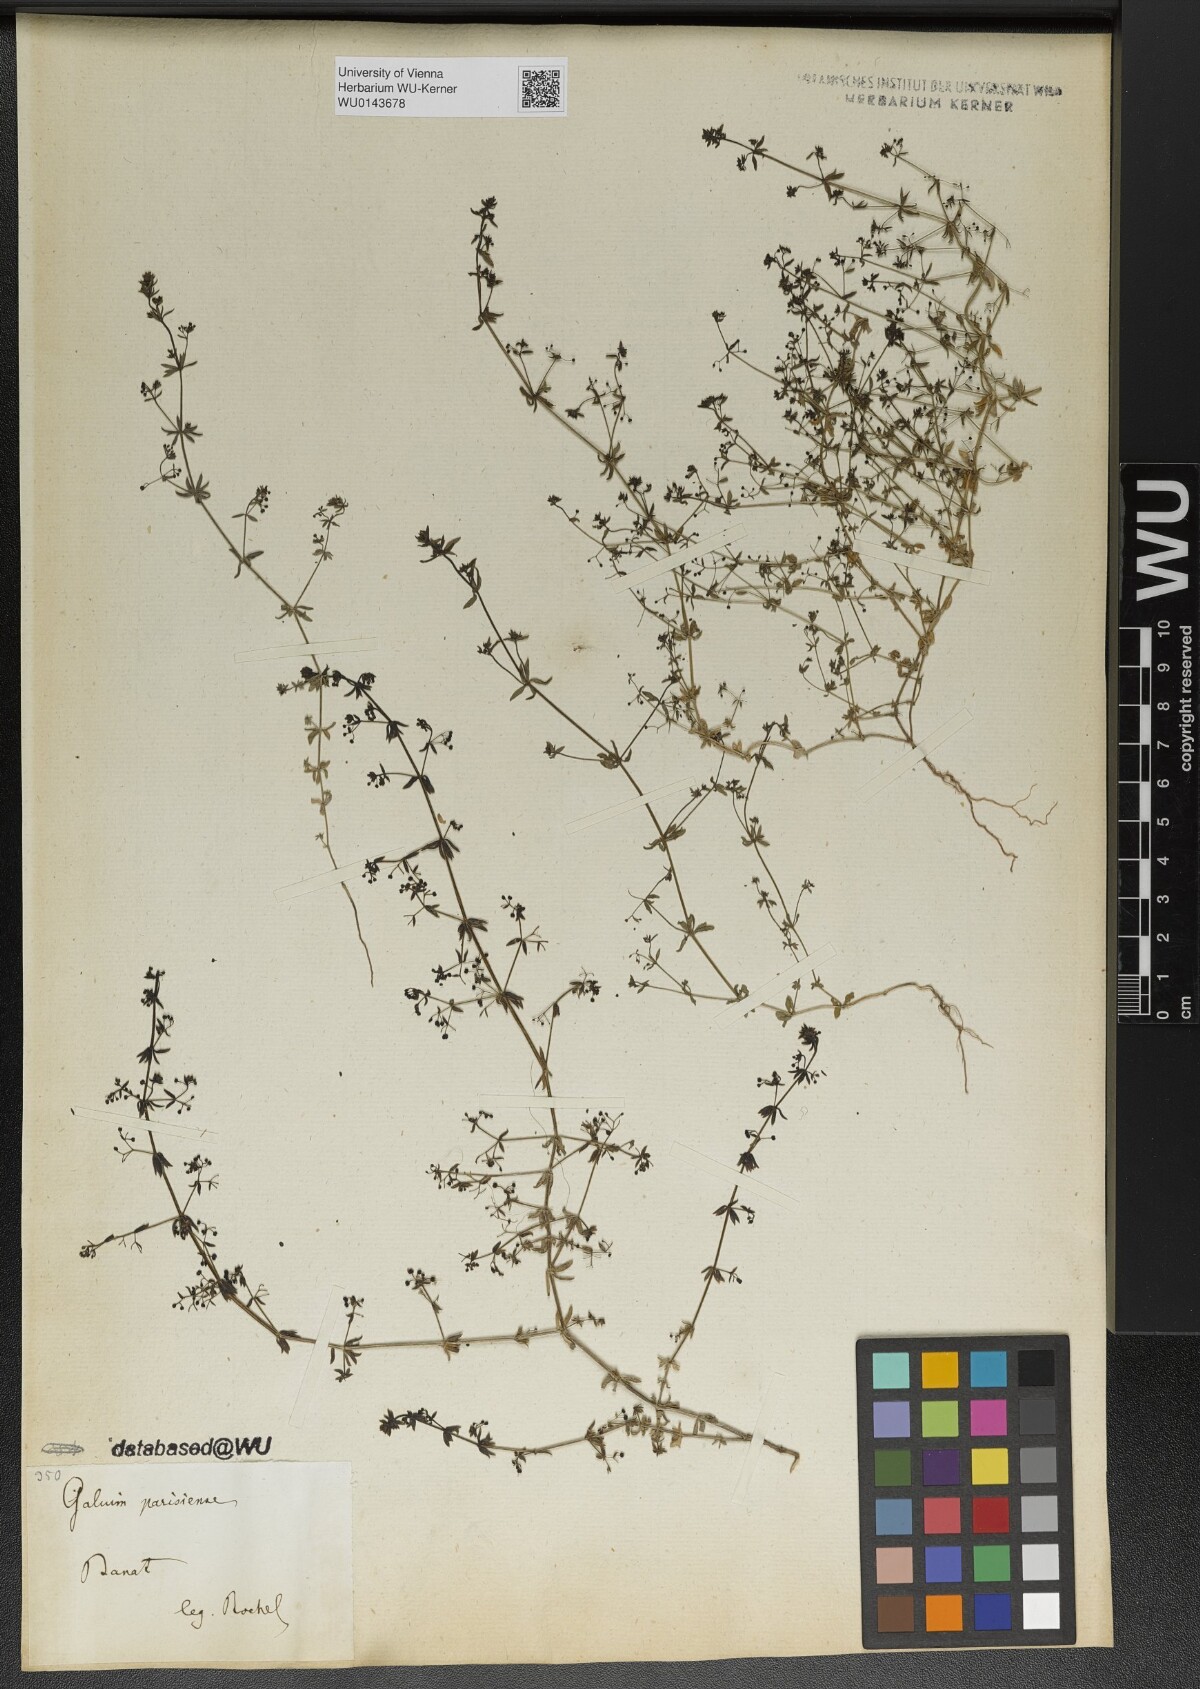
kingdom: Plantae
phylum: Tracheophyta
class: Magnoliopsida
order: Gentianales
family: Rubiaceae
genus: Galium
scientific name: Galium parisiense
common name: Wall bedstraw
